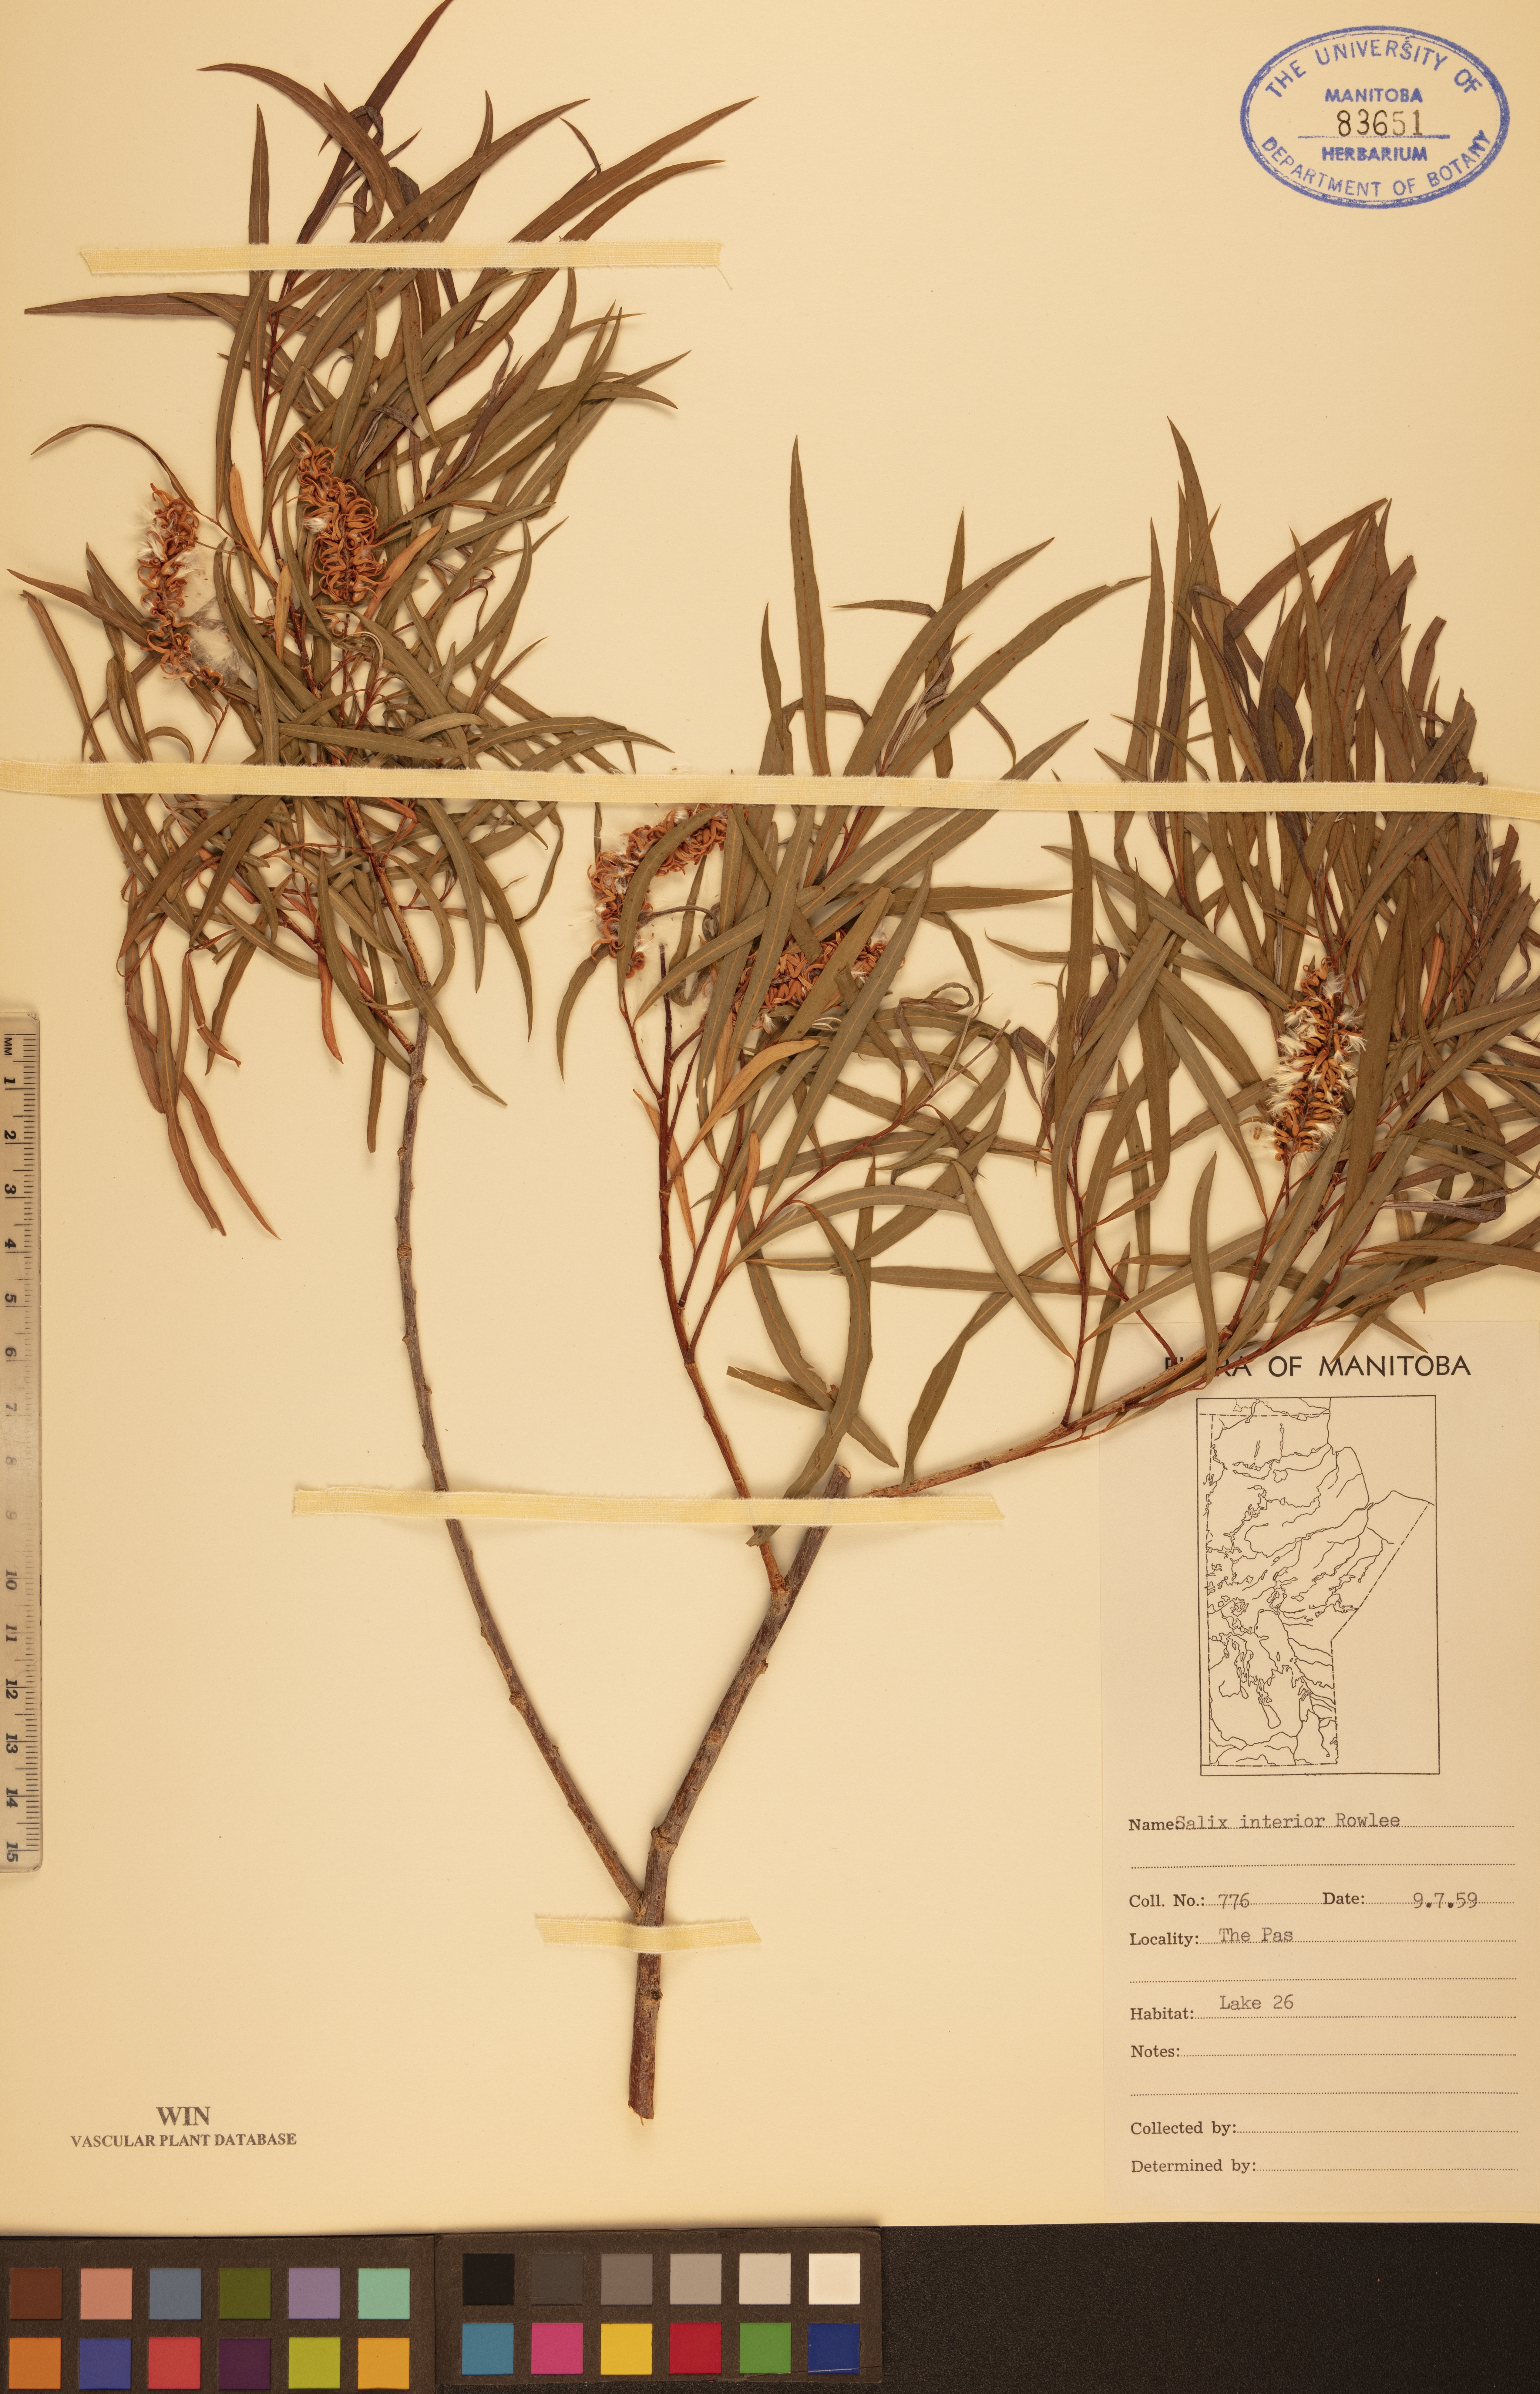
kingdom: Plantae
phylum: Tracheophyta
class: Magnoliopsida
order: Malpighiales
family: Salicaceae
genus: Salix
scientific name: Salix interior
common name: Sandbar willow
